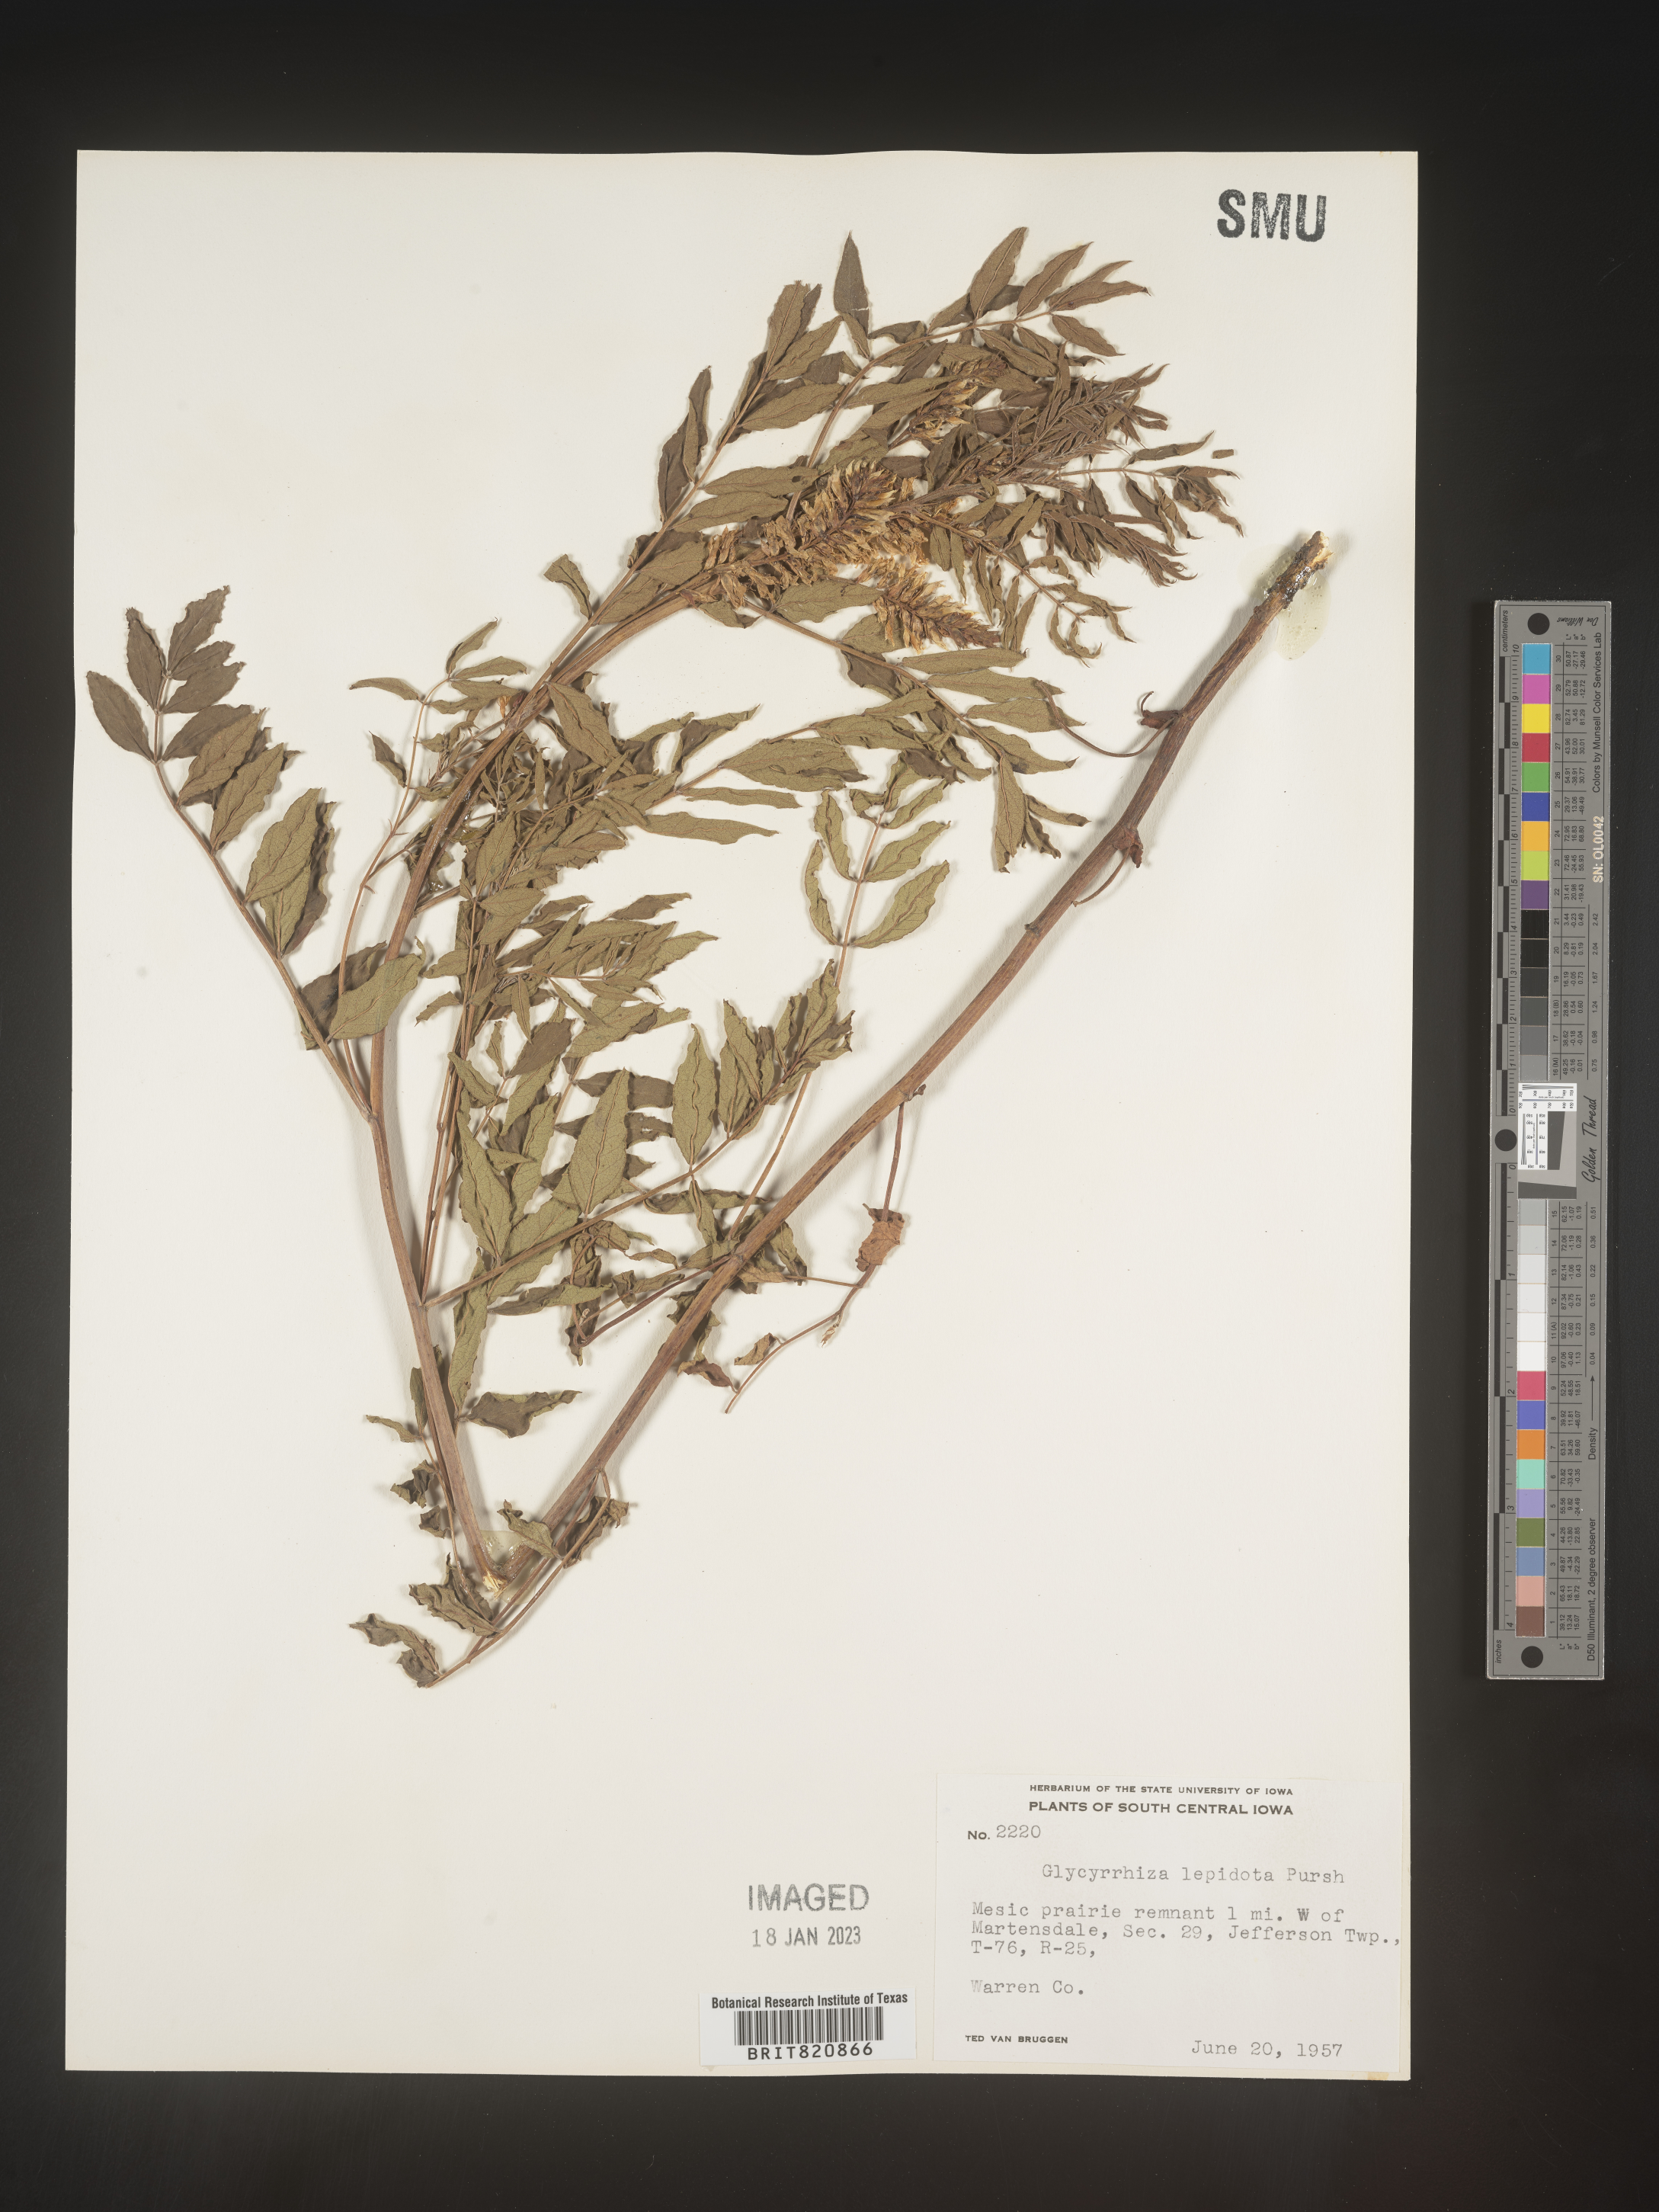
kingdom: Plantae
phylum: Tracheophyta
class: Magnoliopsida
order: Fabales
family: Fabaceae
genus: Glycyrrhiza
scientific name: Glycyrrhiza lepidota
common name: American liquorice
